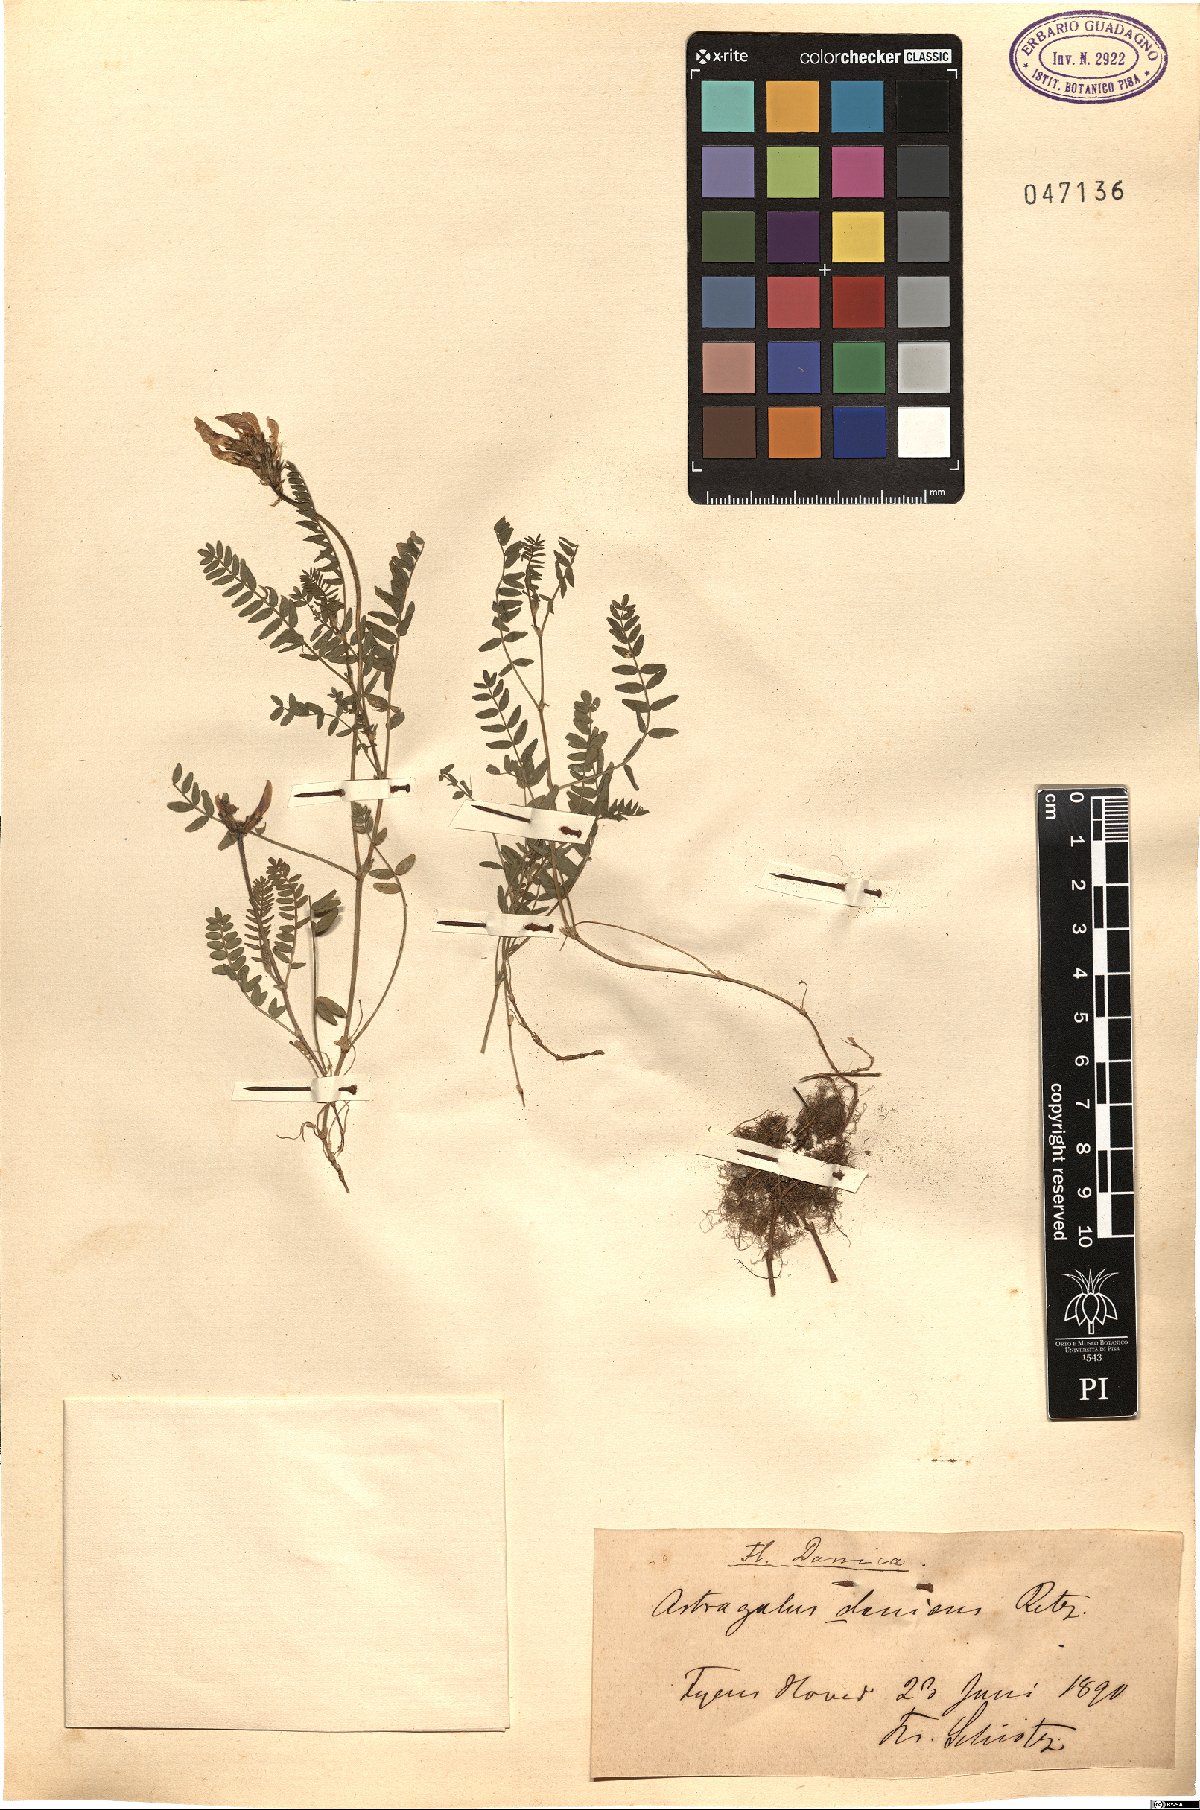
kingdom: Plantae
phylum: Tracheophyta
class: Magnoliopsida
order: Fabales
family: Fabaceae
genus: Astragalus
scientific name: Astragalus danicus
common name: Purple milk-vetch
